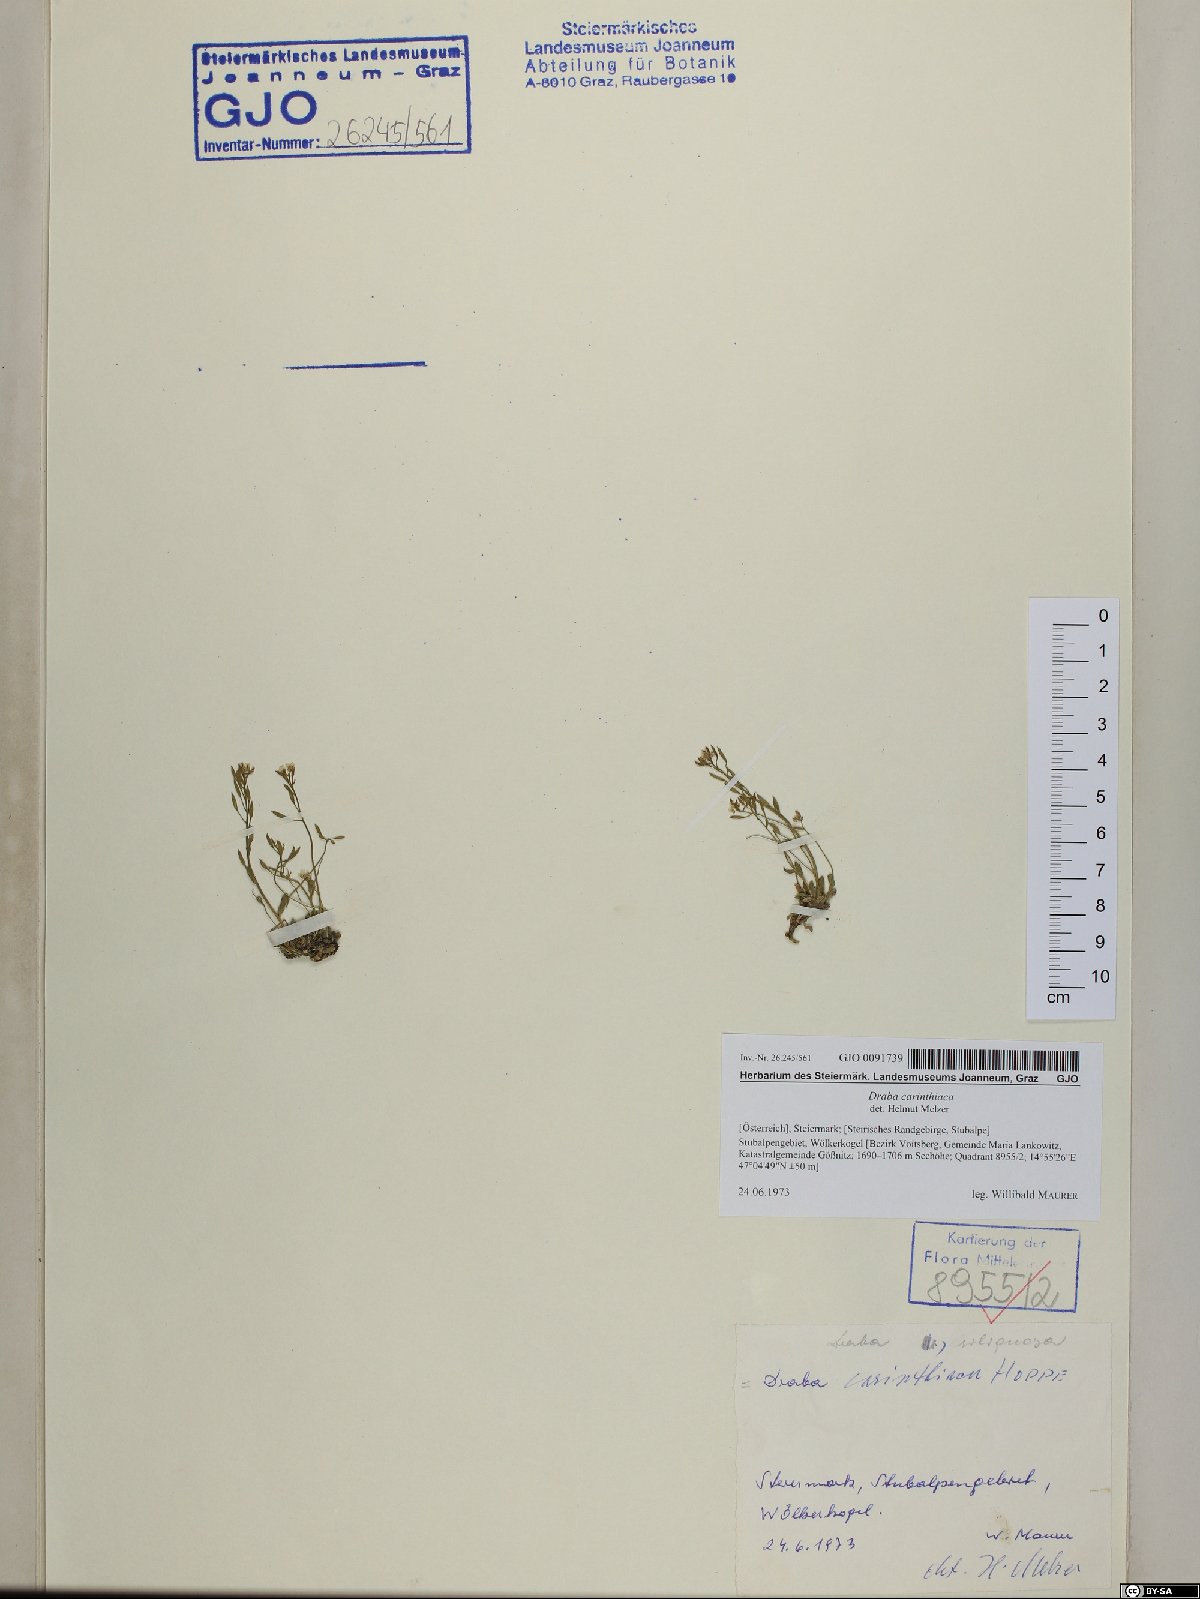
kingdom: Plantae
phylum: Tracheophyta
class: Magnoliopsida
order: Brassicales
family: Brassicaceae
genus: Draba
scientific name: Draba siliquosa
